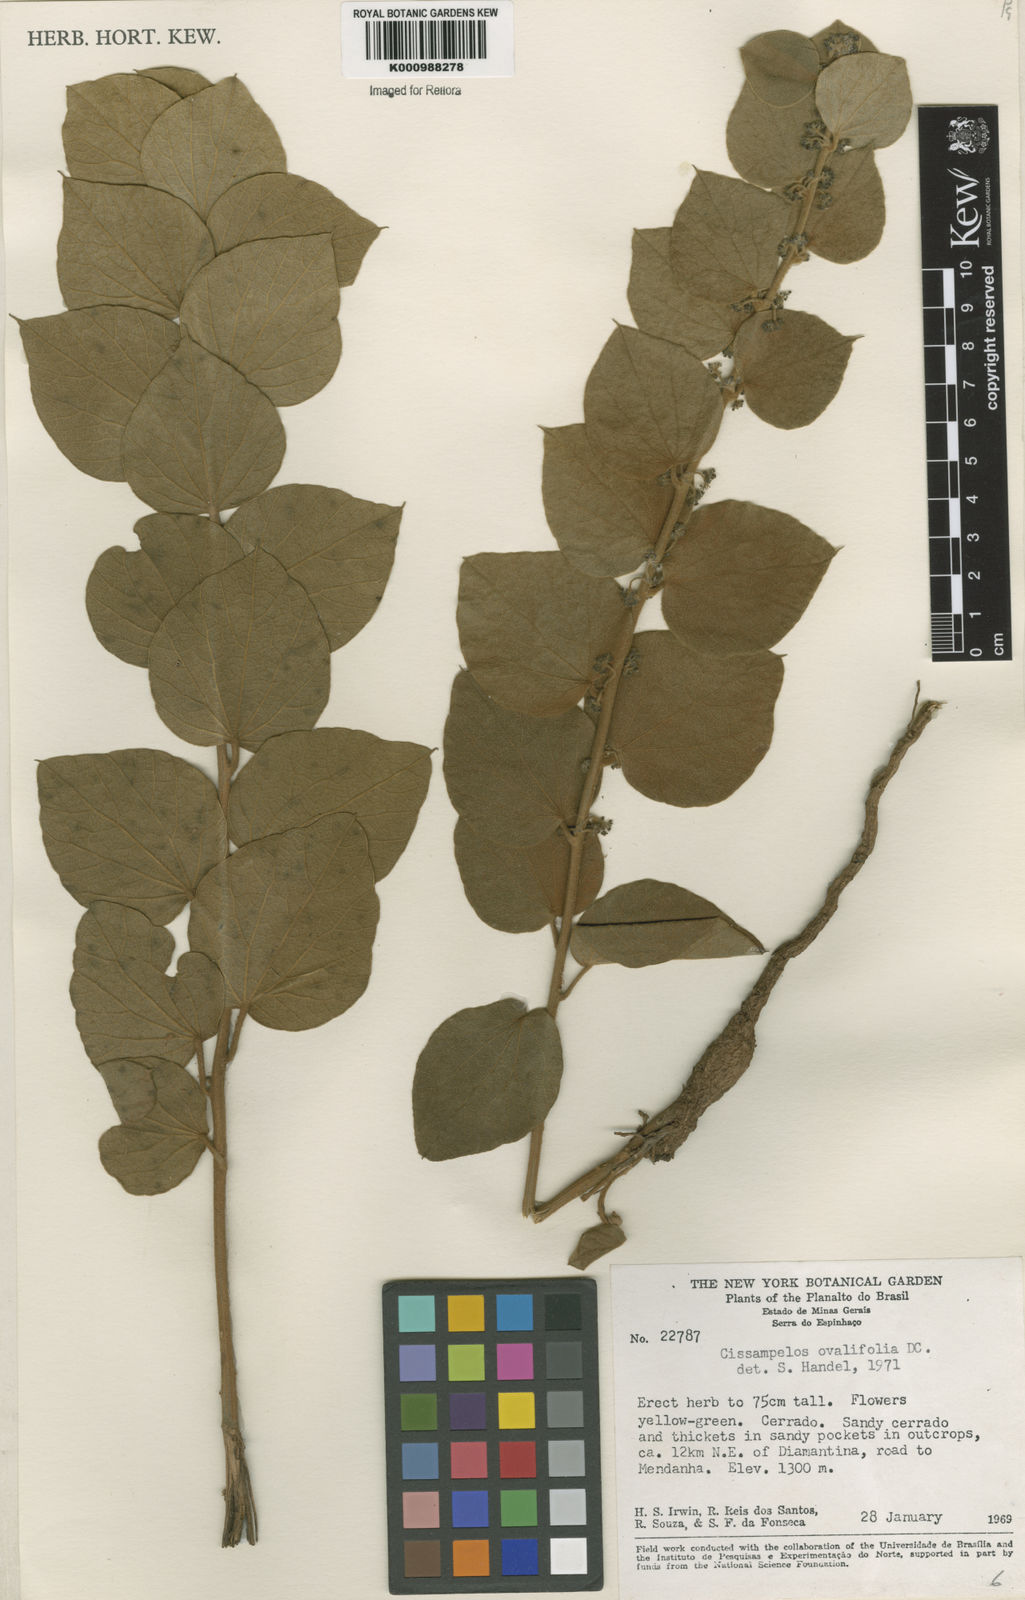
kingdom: Plantae
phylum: Tracheophyta
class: Magnoliopsida
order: Ranunculales
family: Menispermaceae
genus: Cissampelos
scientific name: Cissampelos ovalifolia
